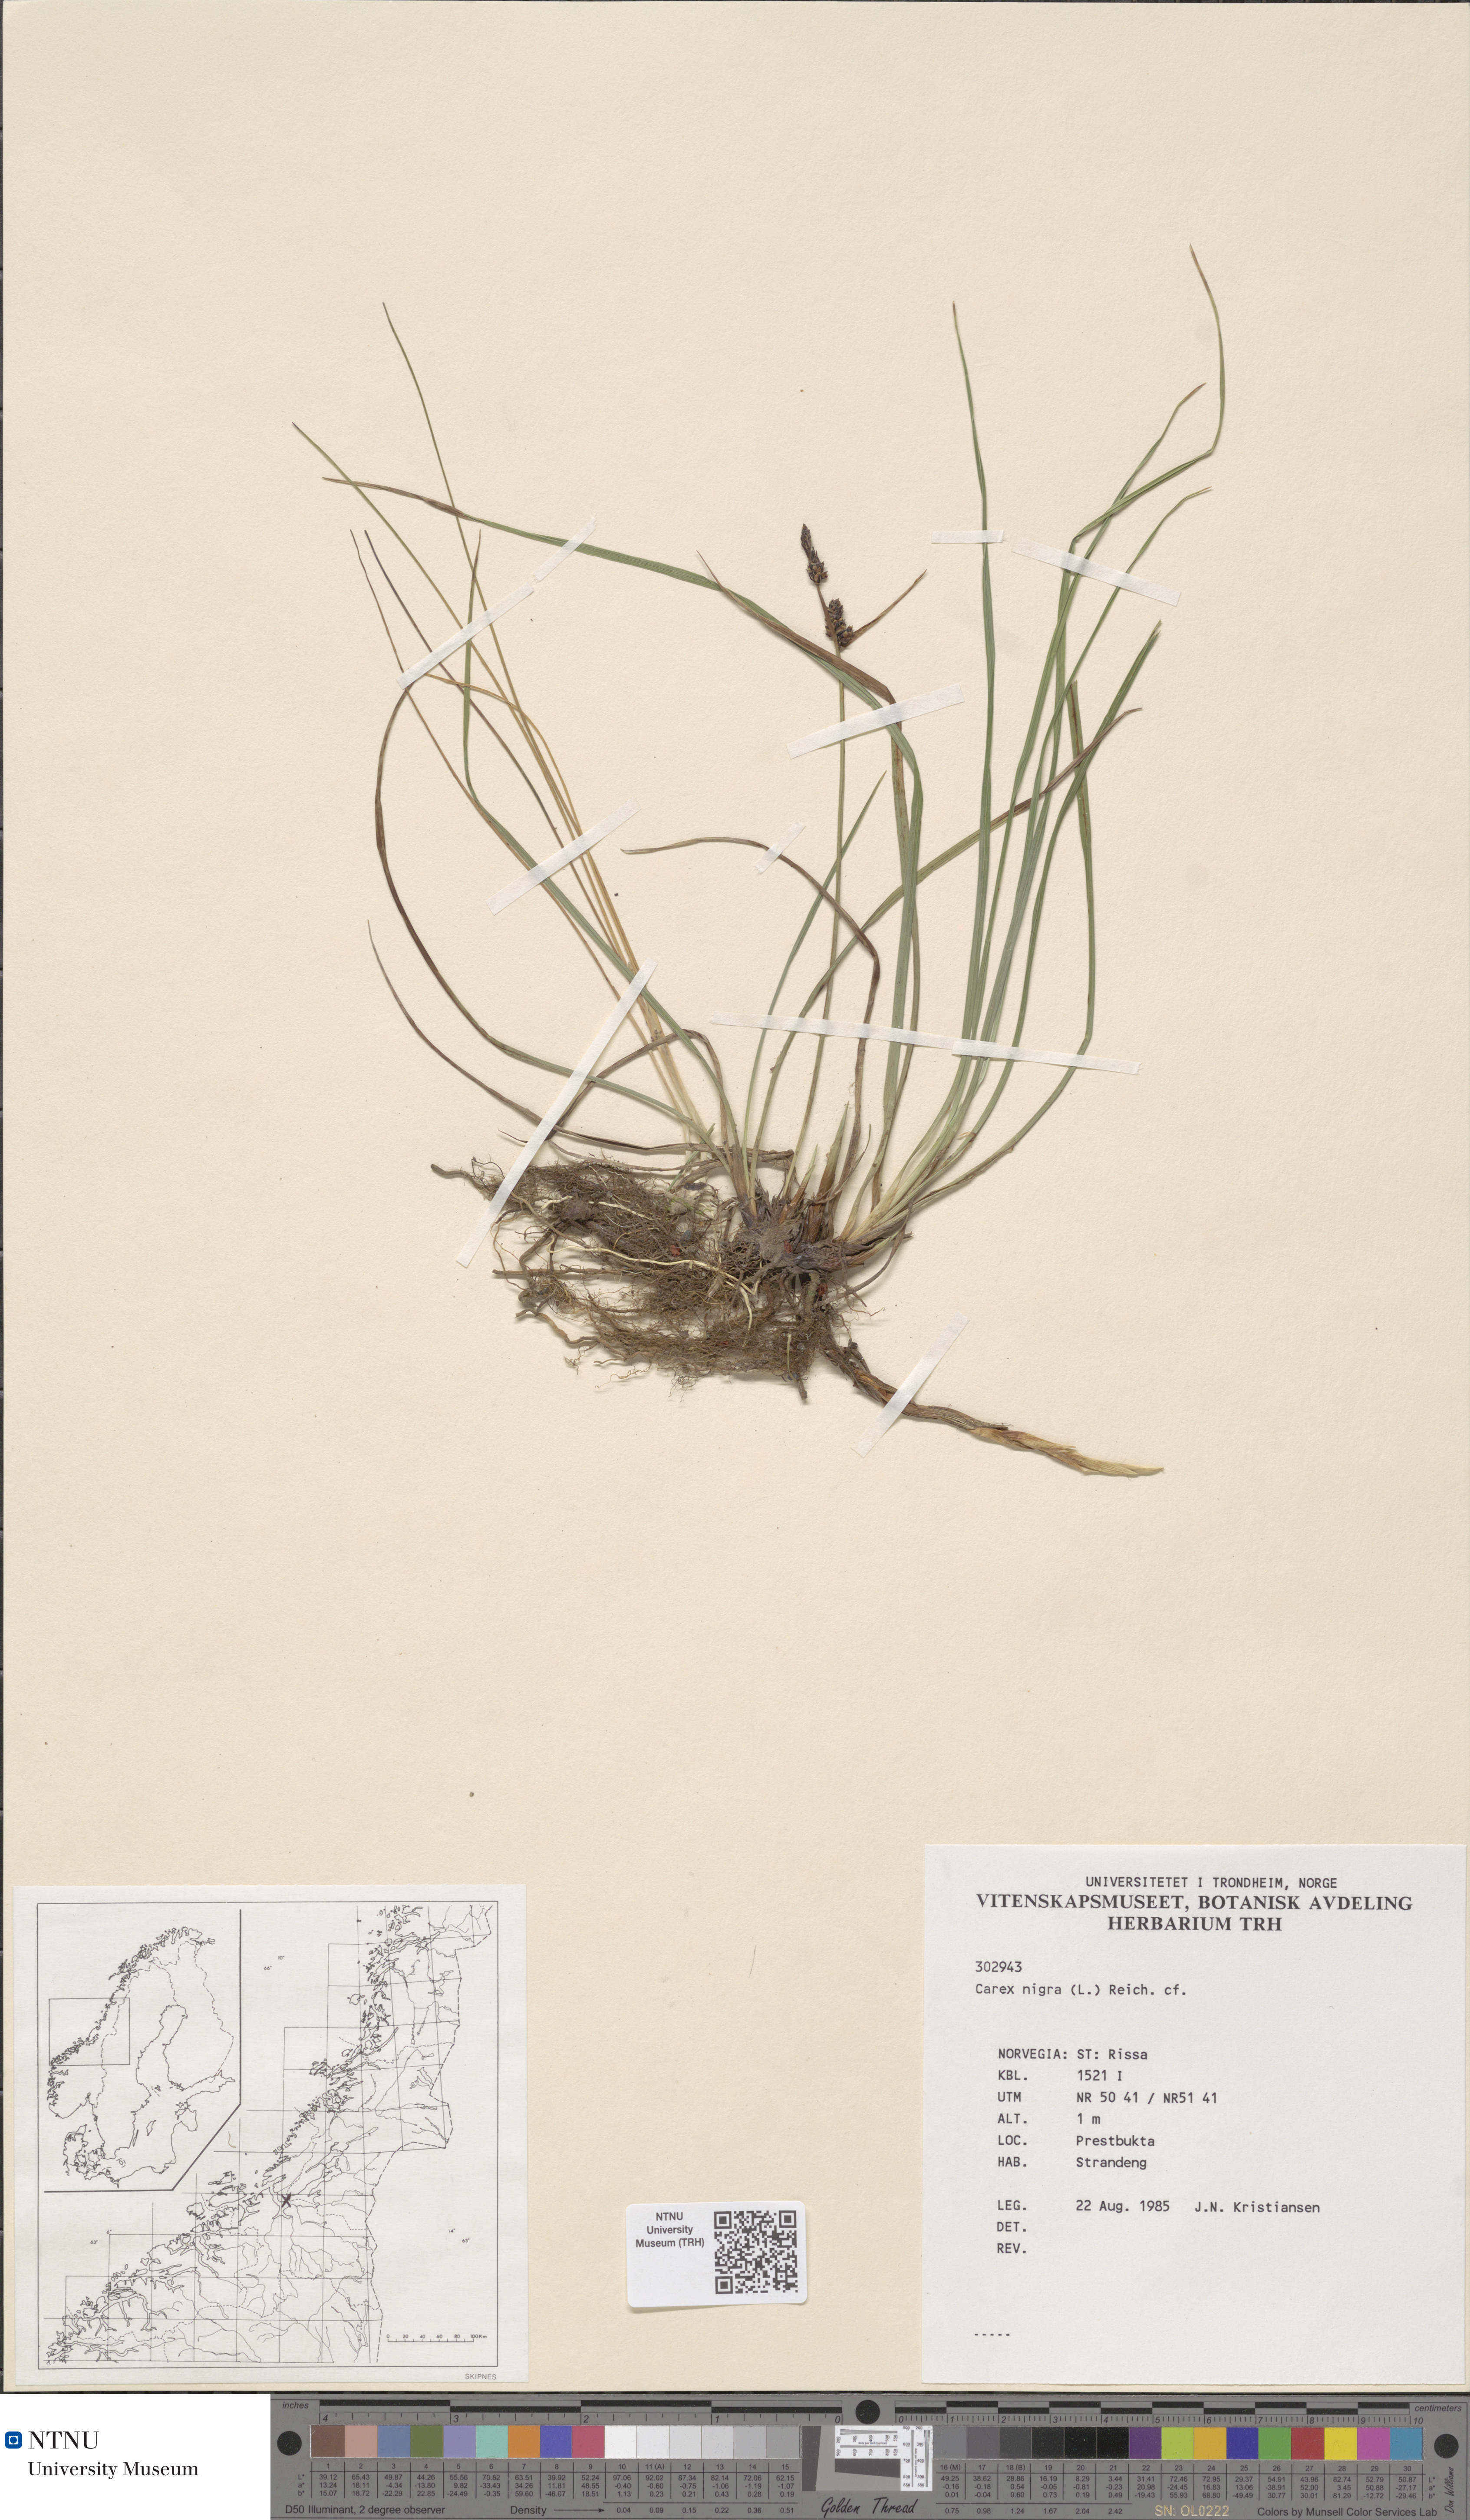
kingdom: Plantae
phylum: Tracheophyta
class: Liliopsida
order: Poales
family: Cyperaceae
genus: Carex
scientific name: Carex nigra
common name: Common sedge
